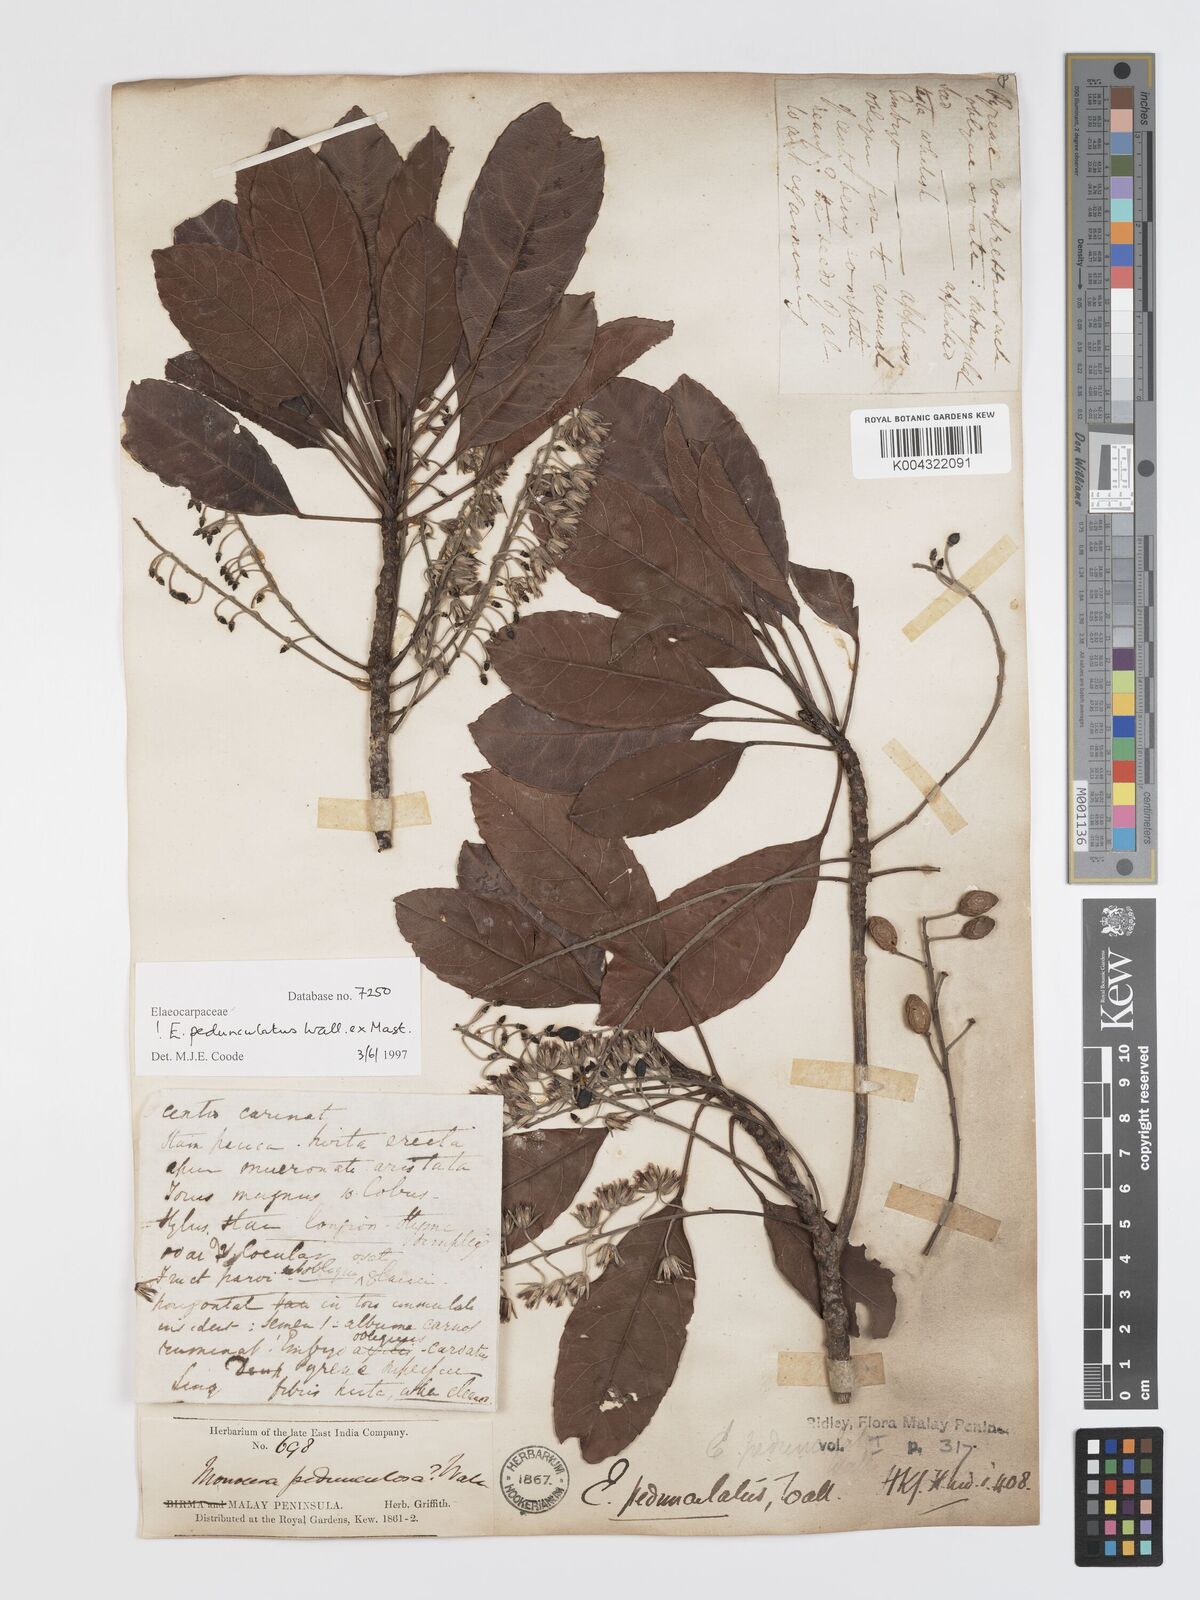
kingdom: Plantae
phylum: Tracheophyta
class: Magnoliopsida
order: Oxalidales
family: Elaeocarpaceae
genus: Elaeocarpus
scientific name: Elaeocarpus pedunculatus
